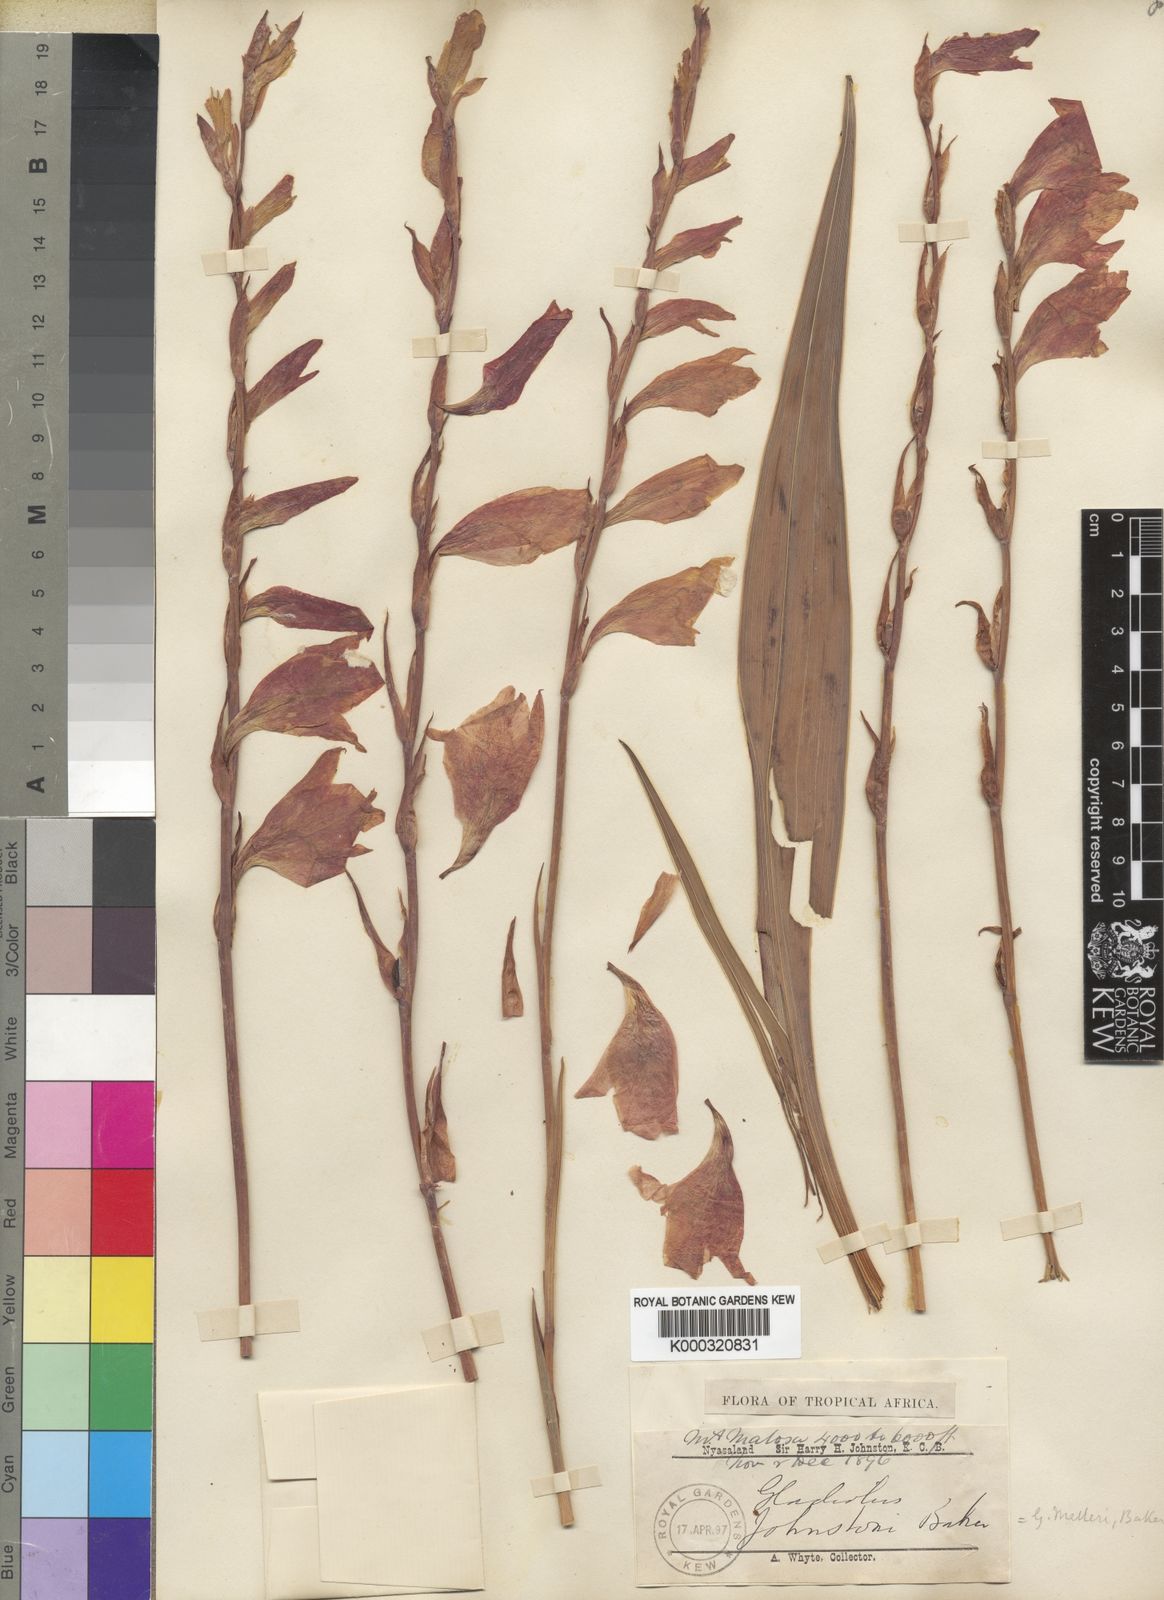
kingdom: Plantae
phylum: Tracheophyta
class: Liliopsida
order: Asparagales
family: Iridaceae
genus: Gladiolus
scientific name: Gladiolus melleri
